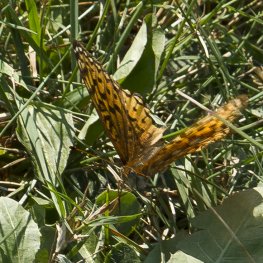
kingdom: Animalia
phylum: Arthropoda
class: Insecta
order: Lepidoptera
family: Nymphalidae
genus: Speyeria
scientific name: Speyeria atlantis
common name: Atlantis Fritillary
